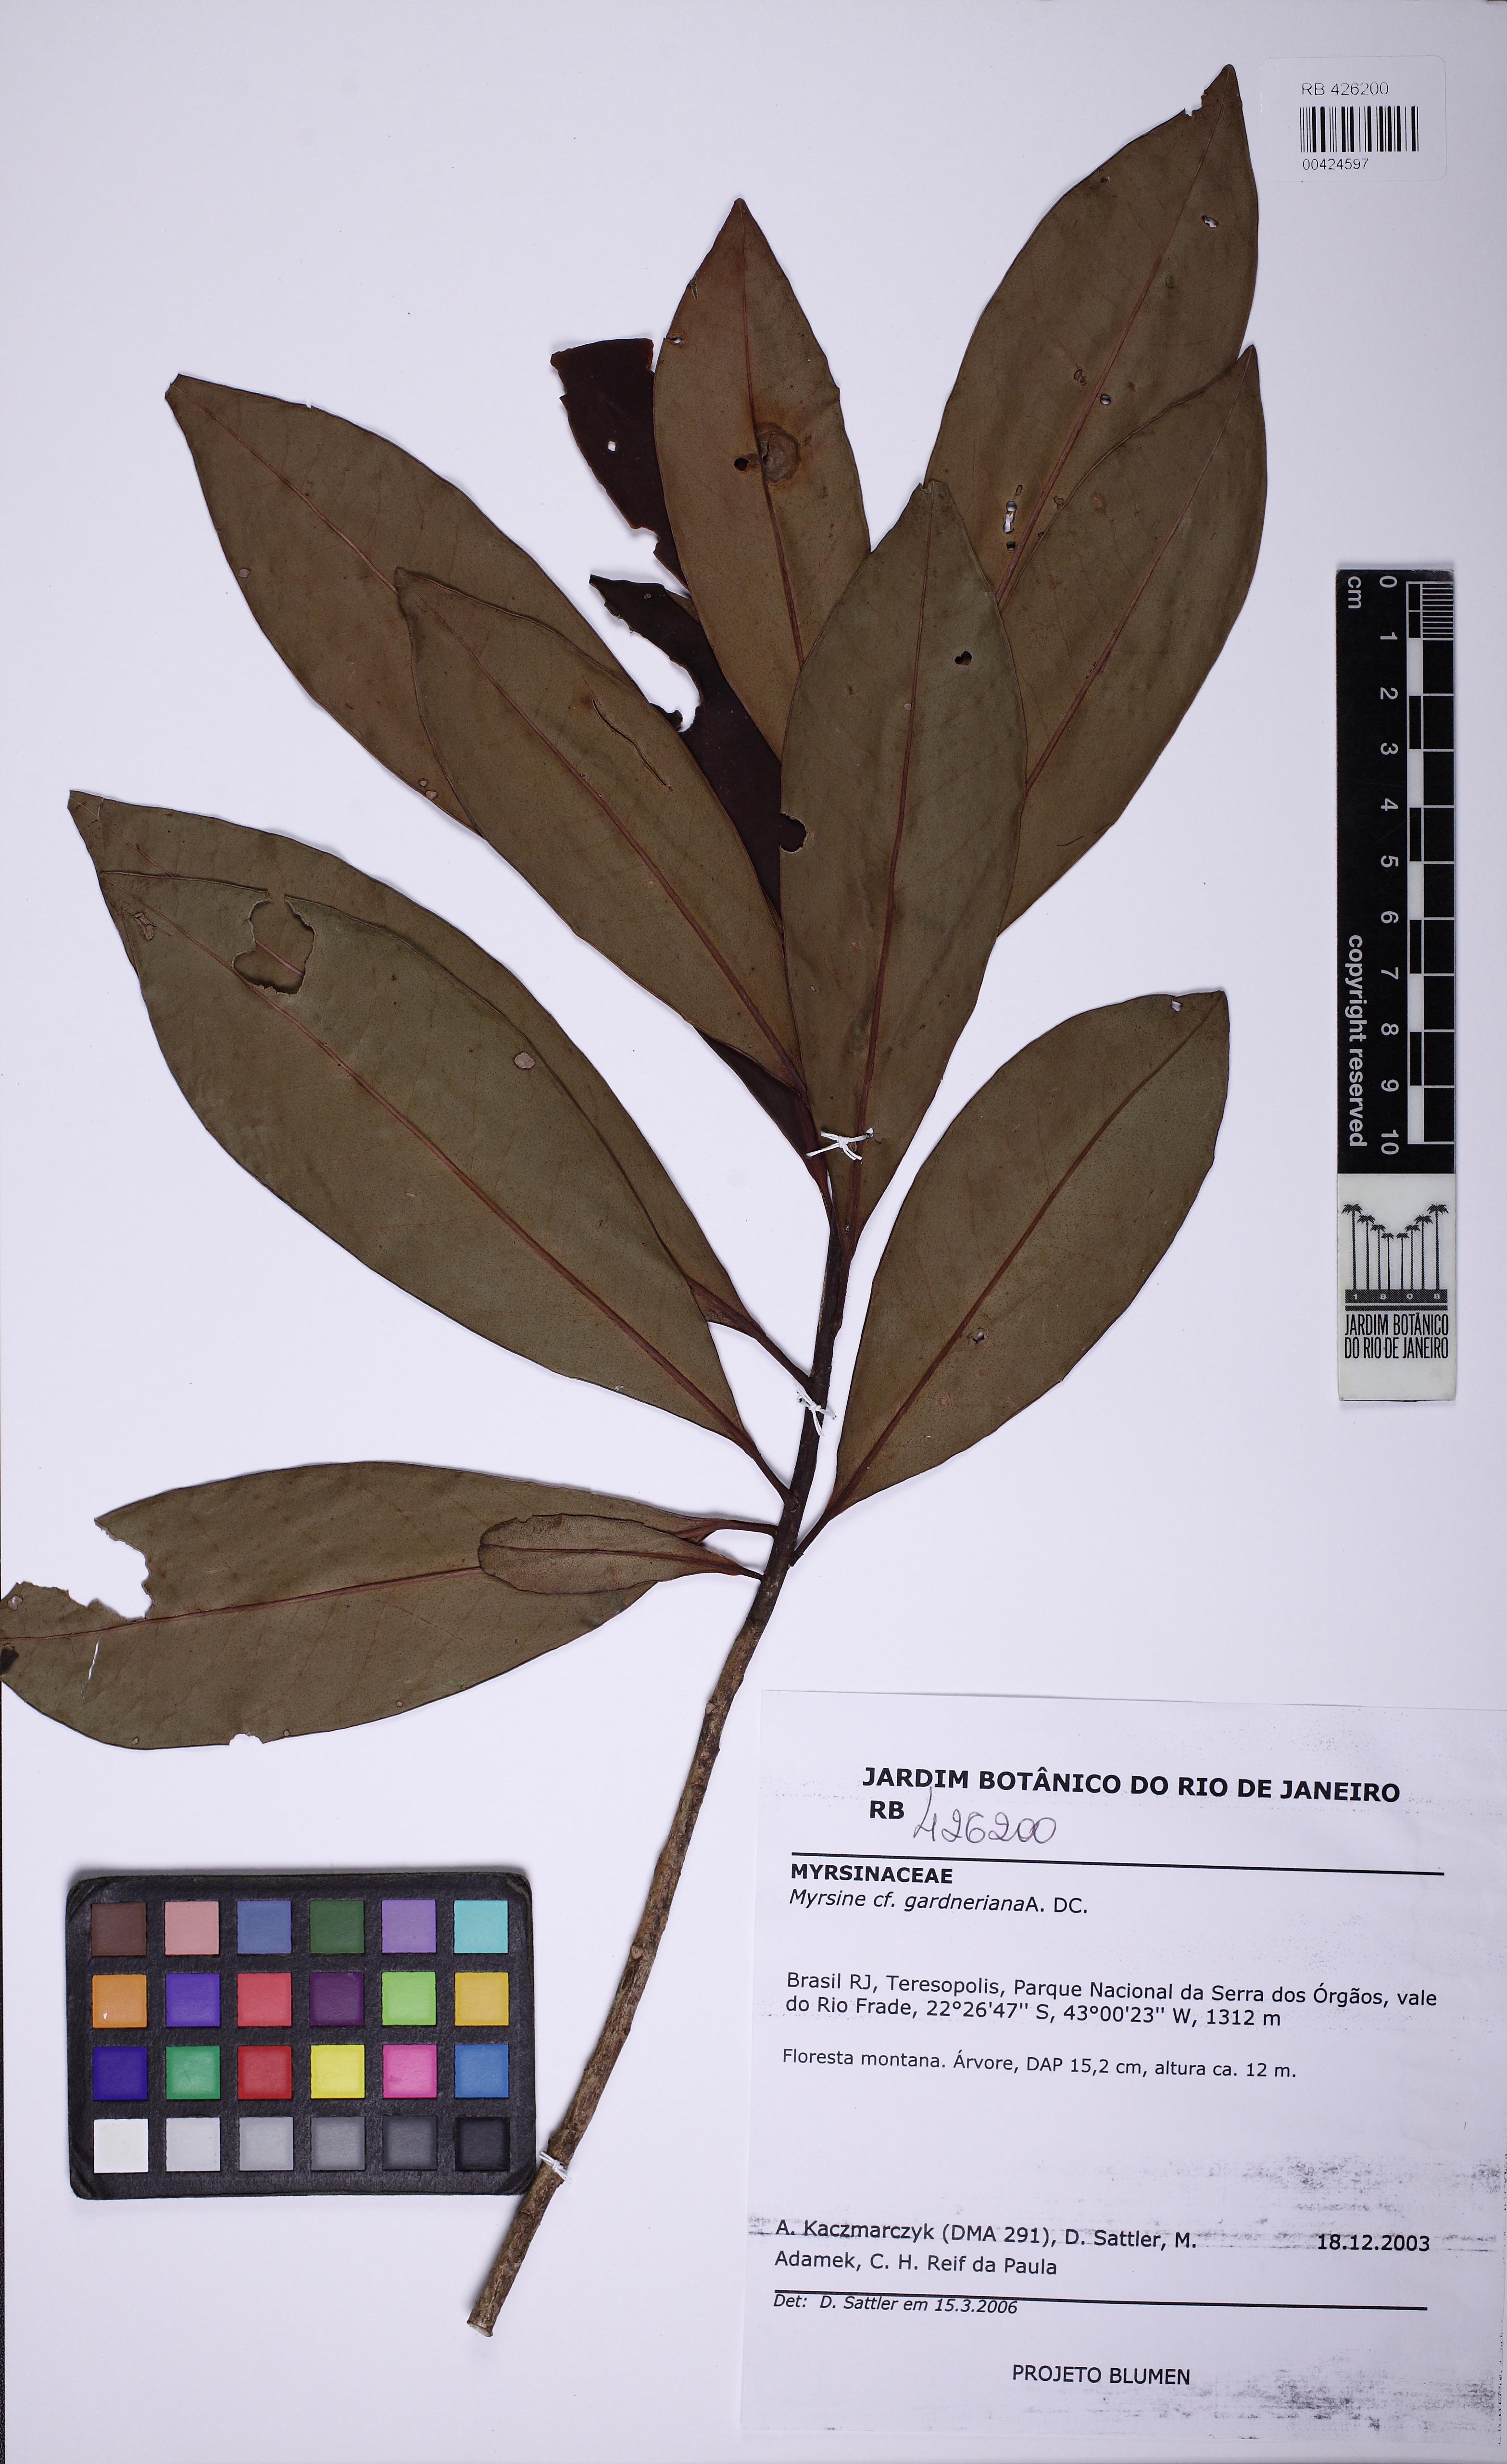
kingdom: Plantae
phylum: Tracheophyta
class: Magnoliopsida
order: Ericales
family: Primulaceae
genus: Myrsine
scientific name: Myrsine gardneriana
